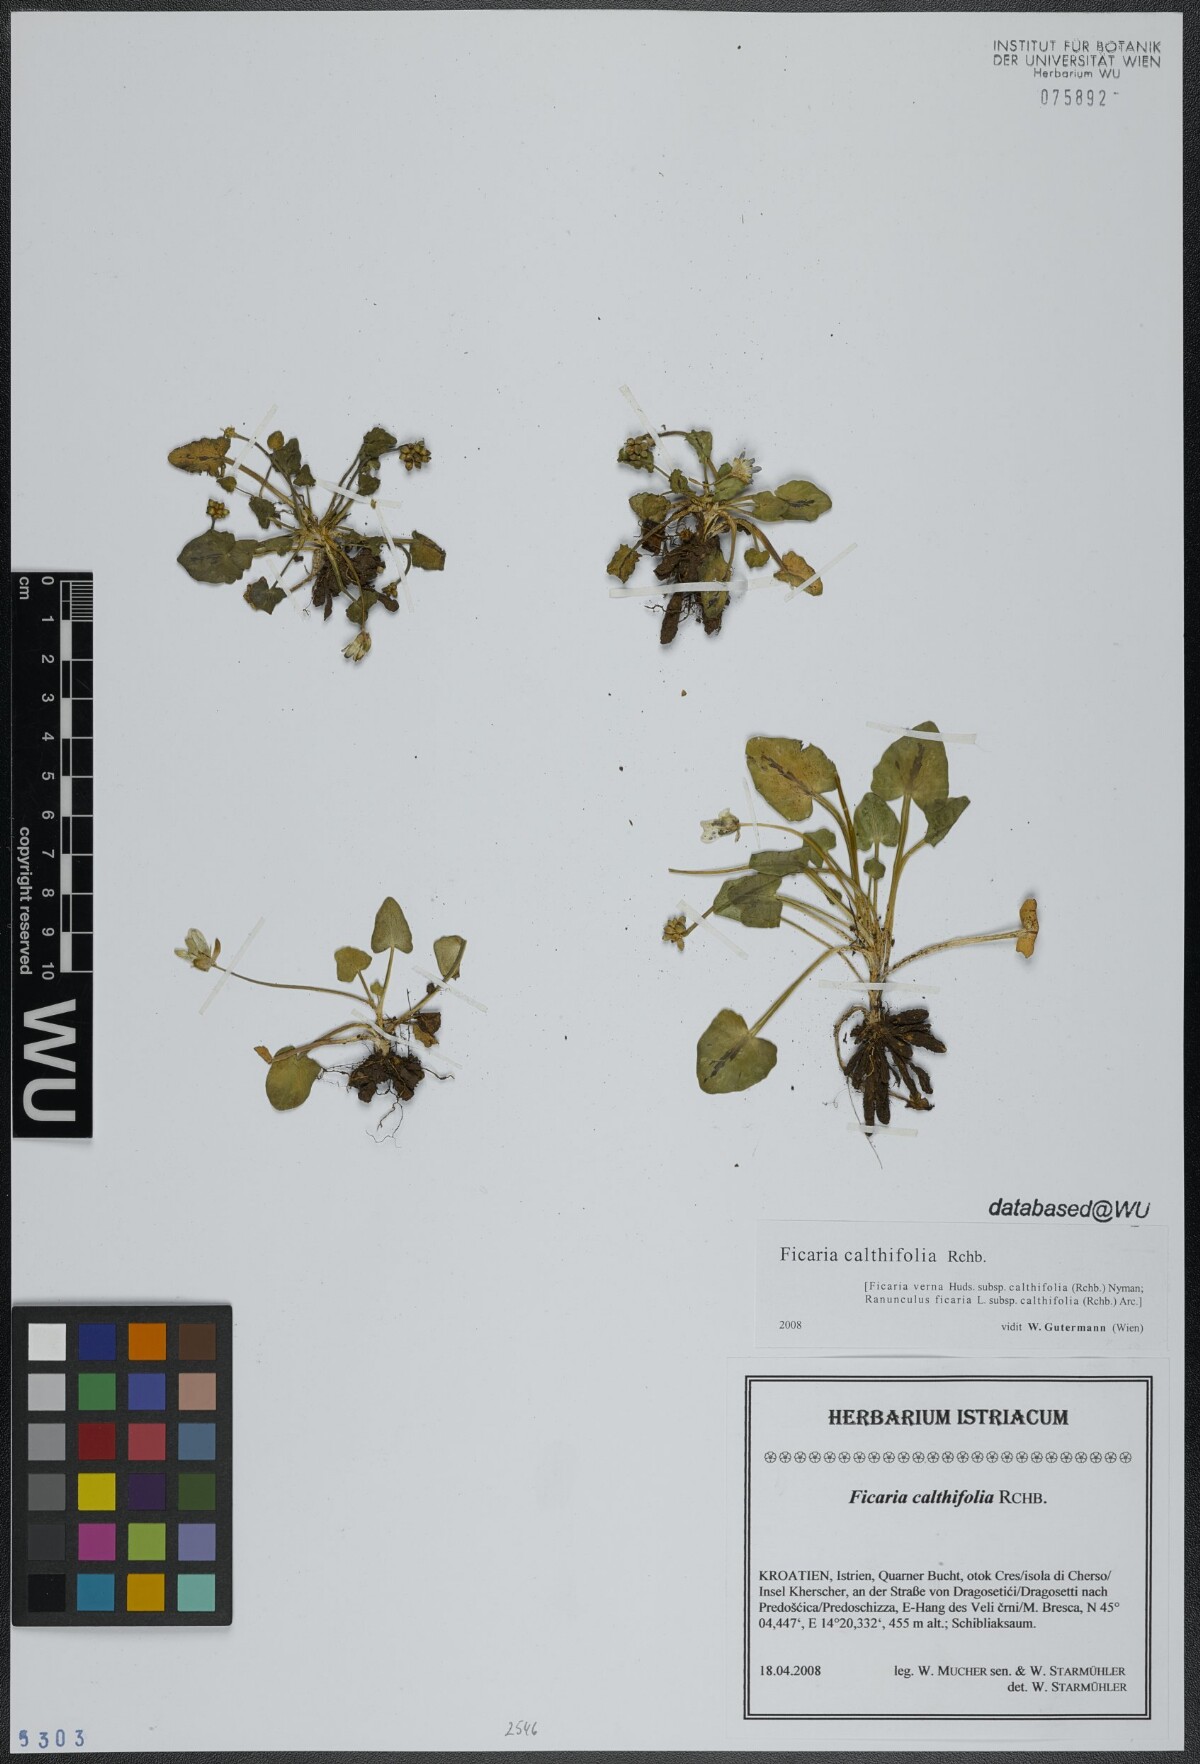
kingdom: Plantae
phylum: Tracheophyta
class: Magnoliopsida
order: Ranunculales
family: Ranunculaceae
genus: Ficaria
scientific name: Ficaria calthifolia
